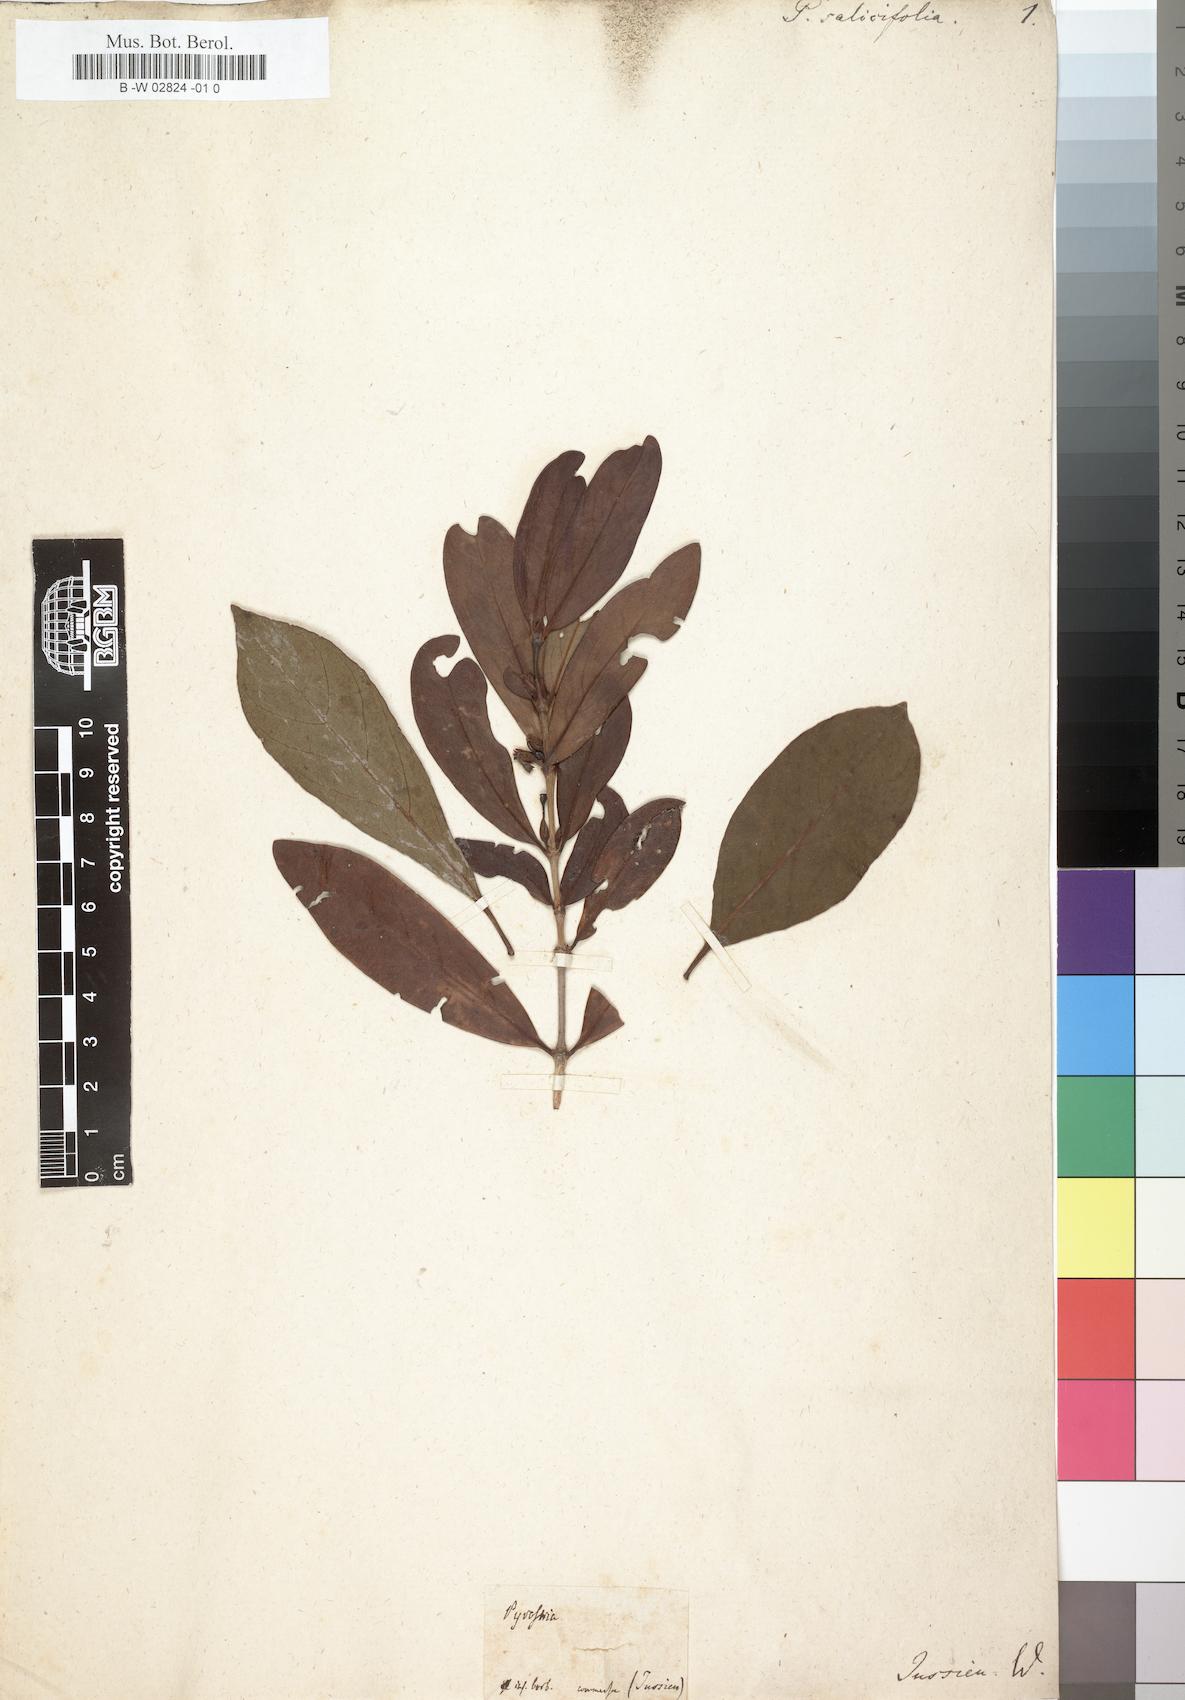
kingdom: Plantae
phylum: Tracheophyta
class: Magnoliopsida
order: Gentianales
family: Rubiaceae
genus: Pyrostria
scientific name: Pyrostria commersonii
